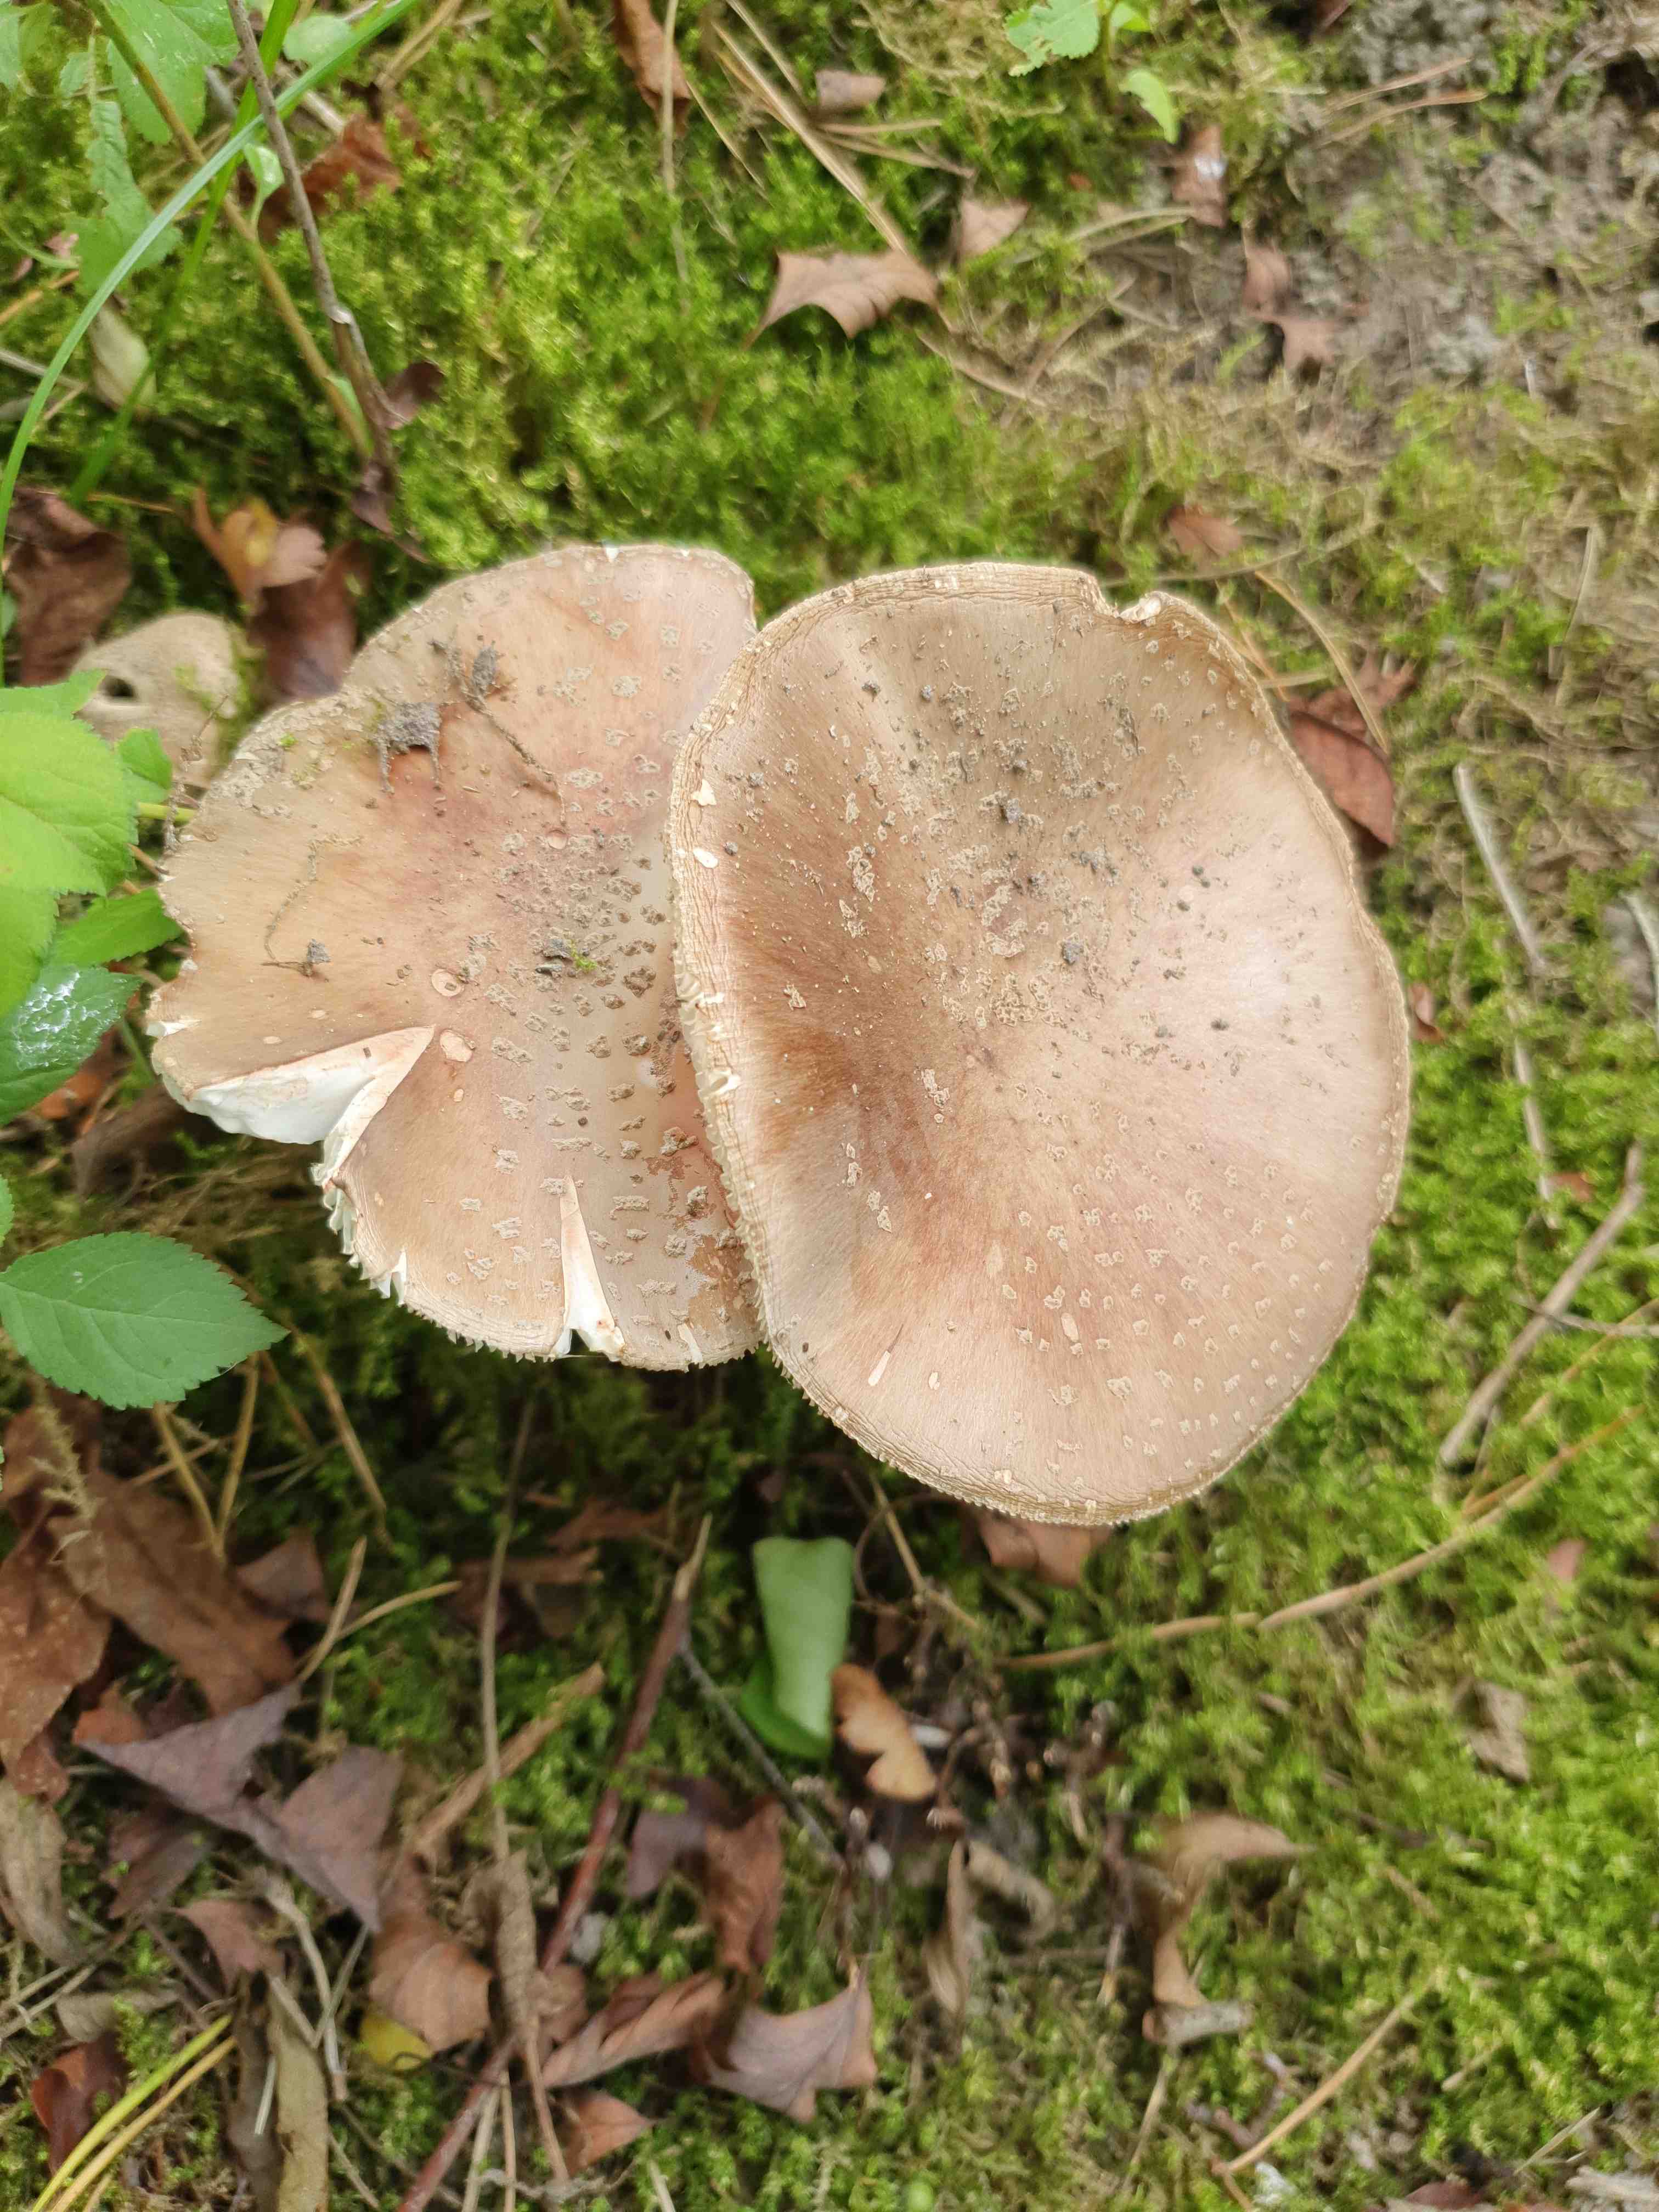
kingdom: Fungi
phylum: Basidiomycota
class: Agaricomycetes
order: Agaricales
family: Amanitaceae
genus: Amanita
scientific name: Amanita rubescens
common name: rødmende fluesvamp
